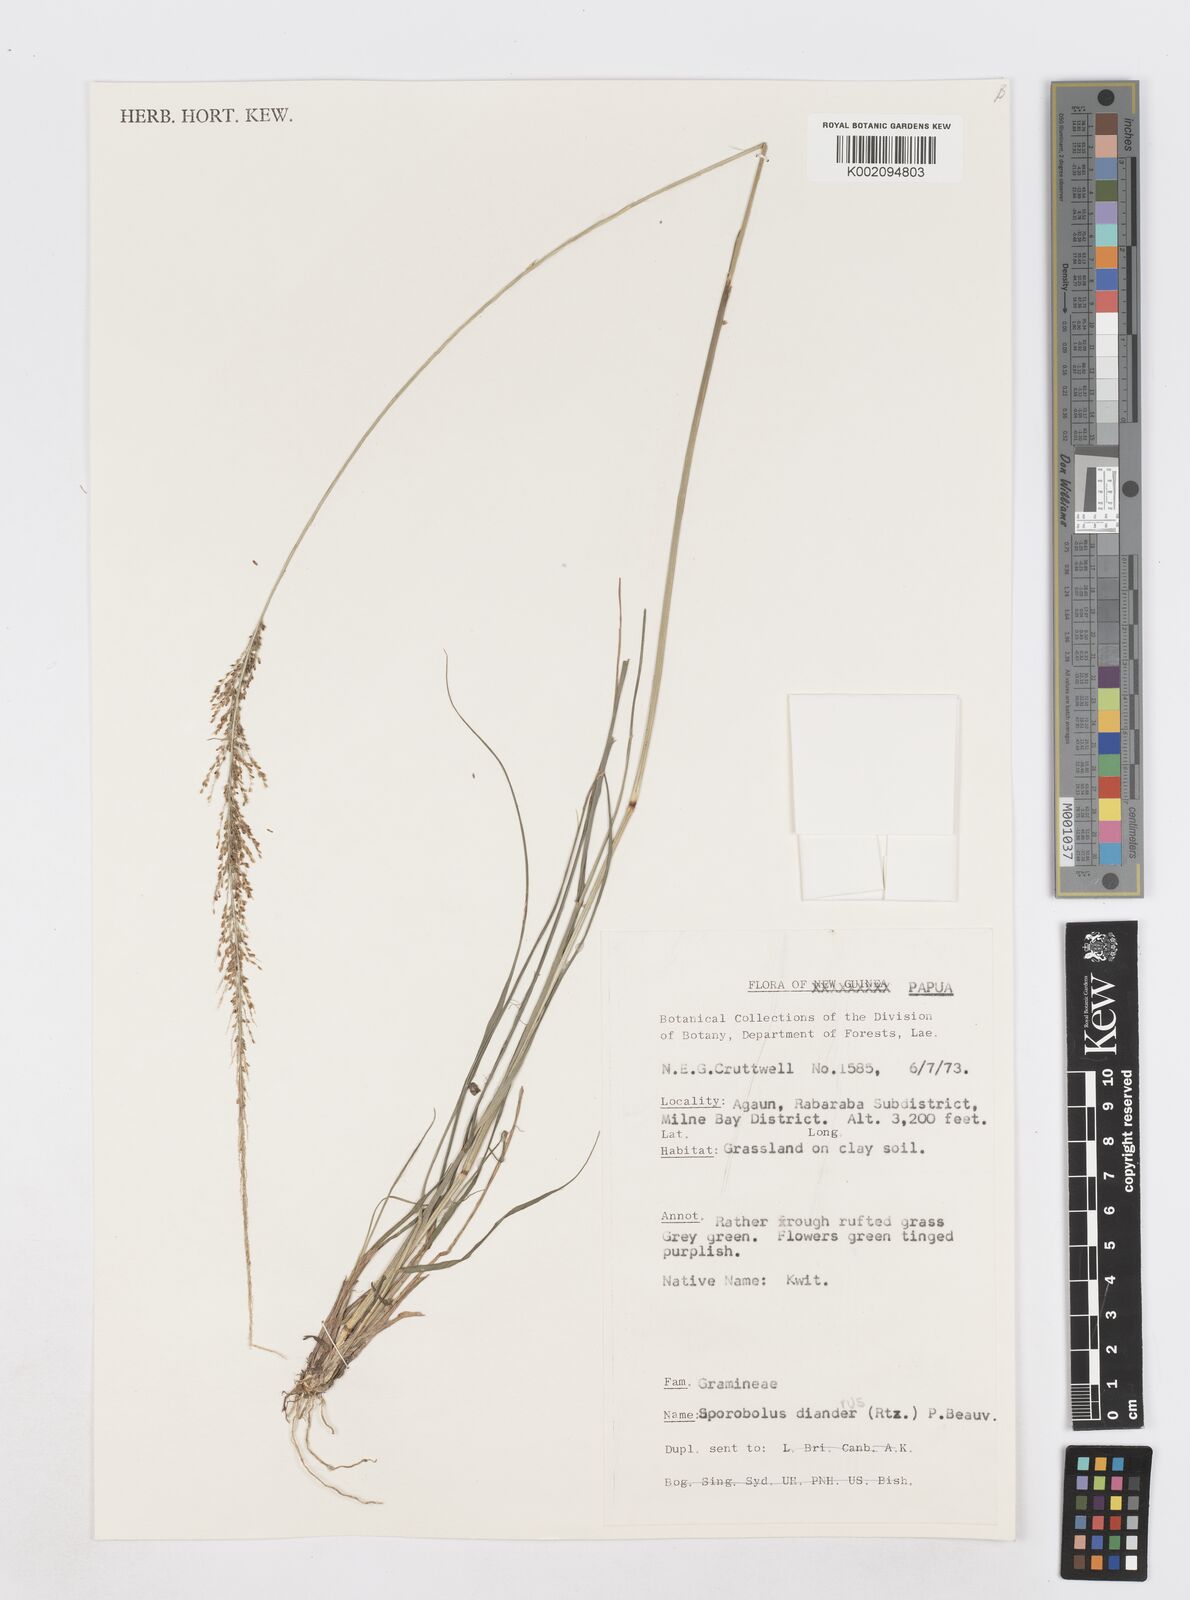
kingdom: Plantae
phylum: Tracheophyta
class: Liliopsida
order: Poales
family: Poaceae
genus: Sporobolus
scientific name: Sporobolus diandrus
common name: Tussock dropseed
